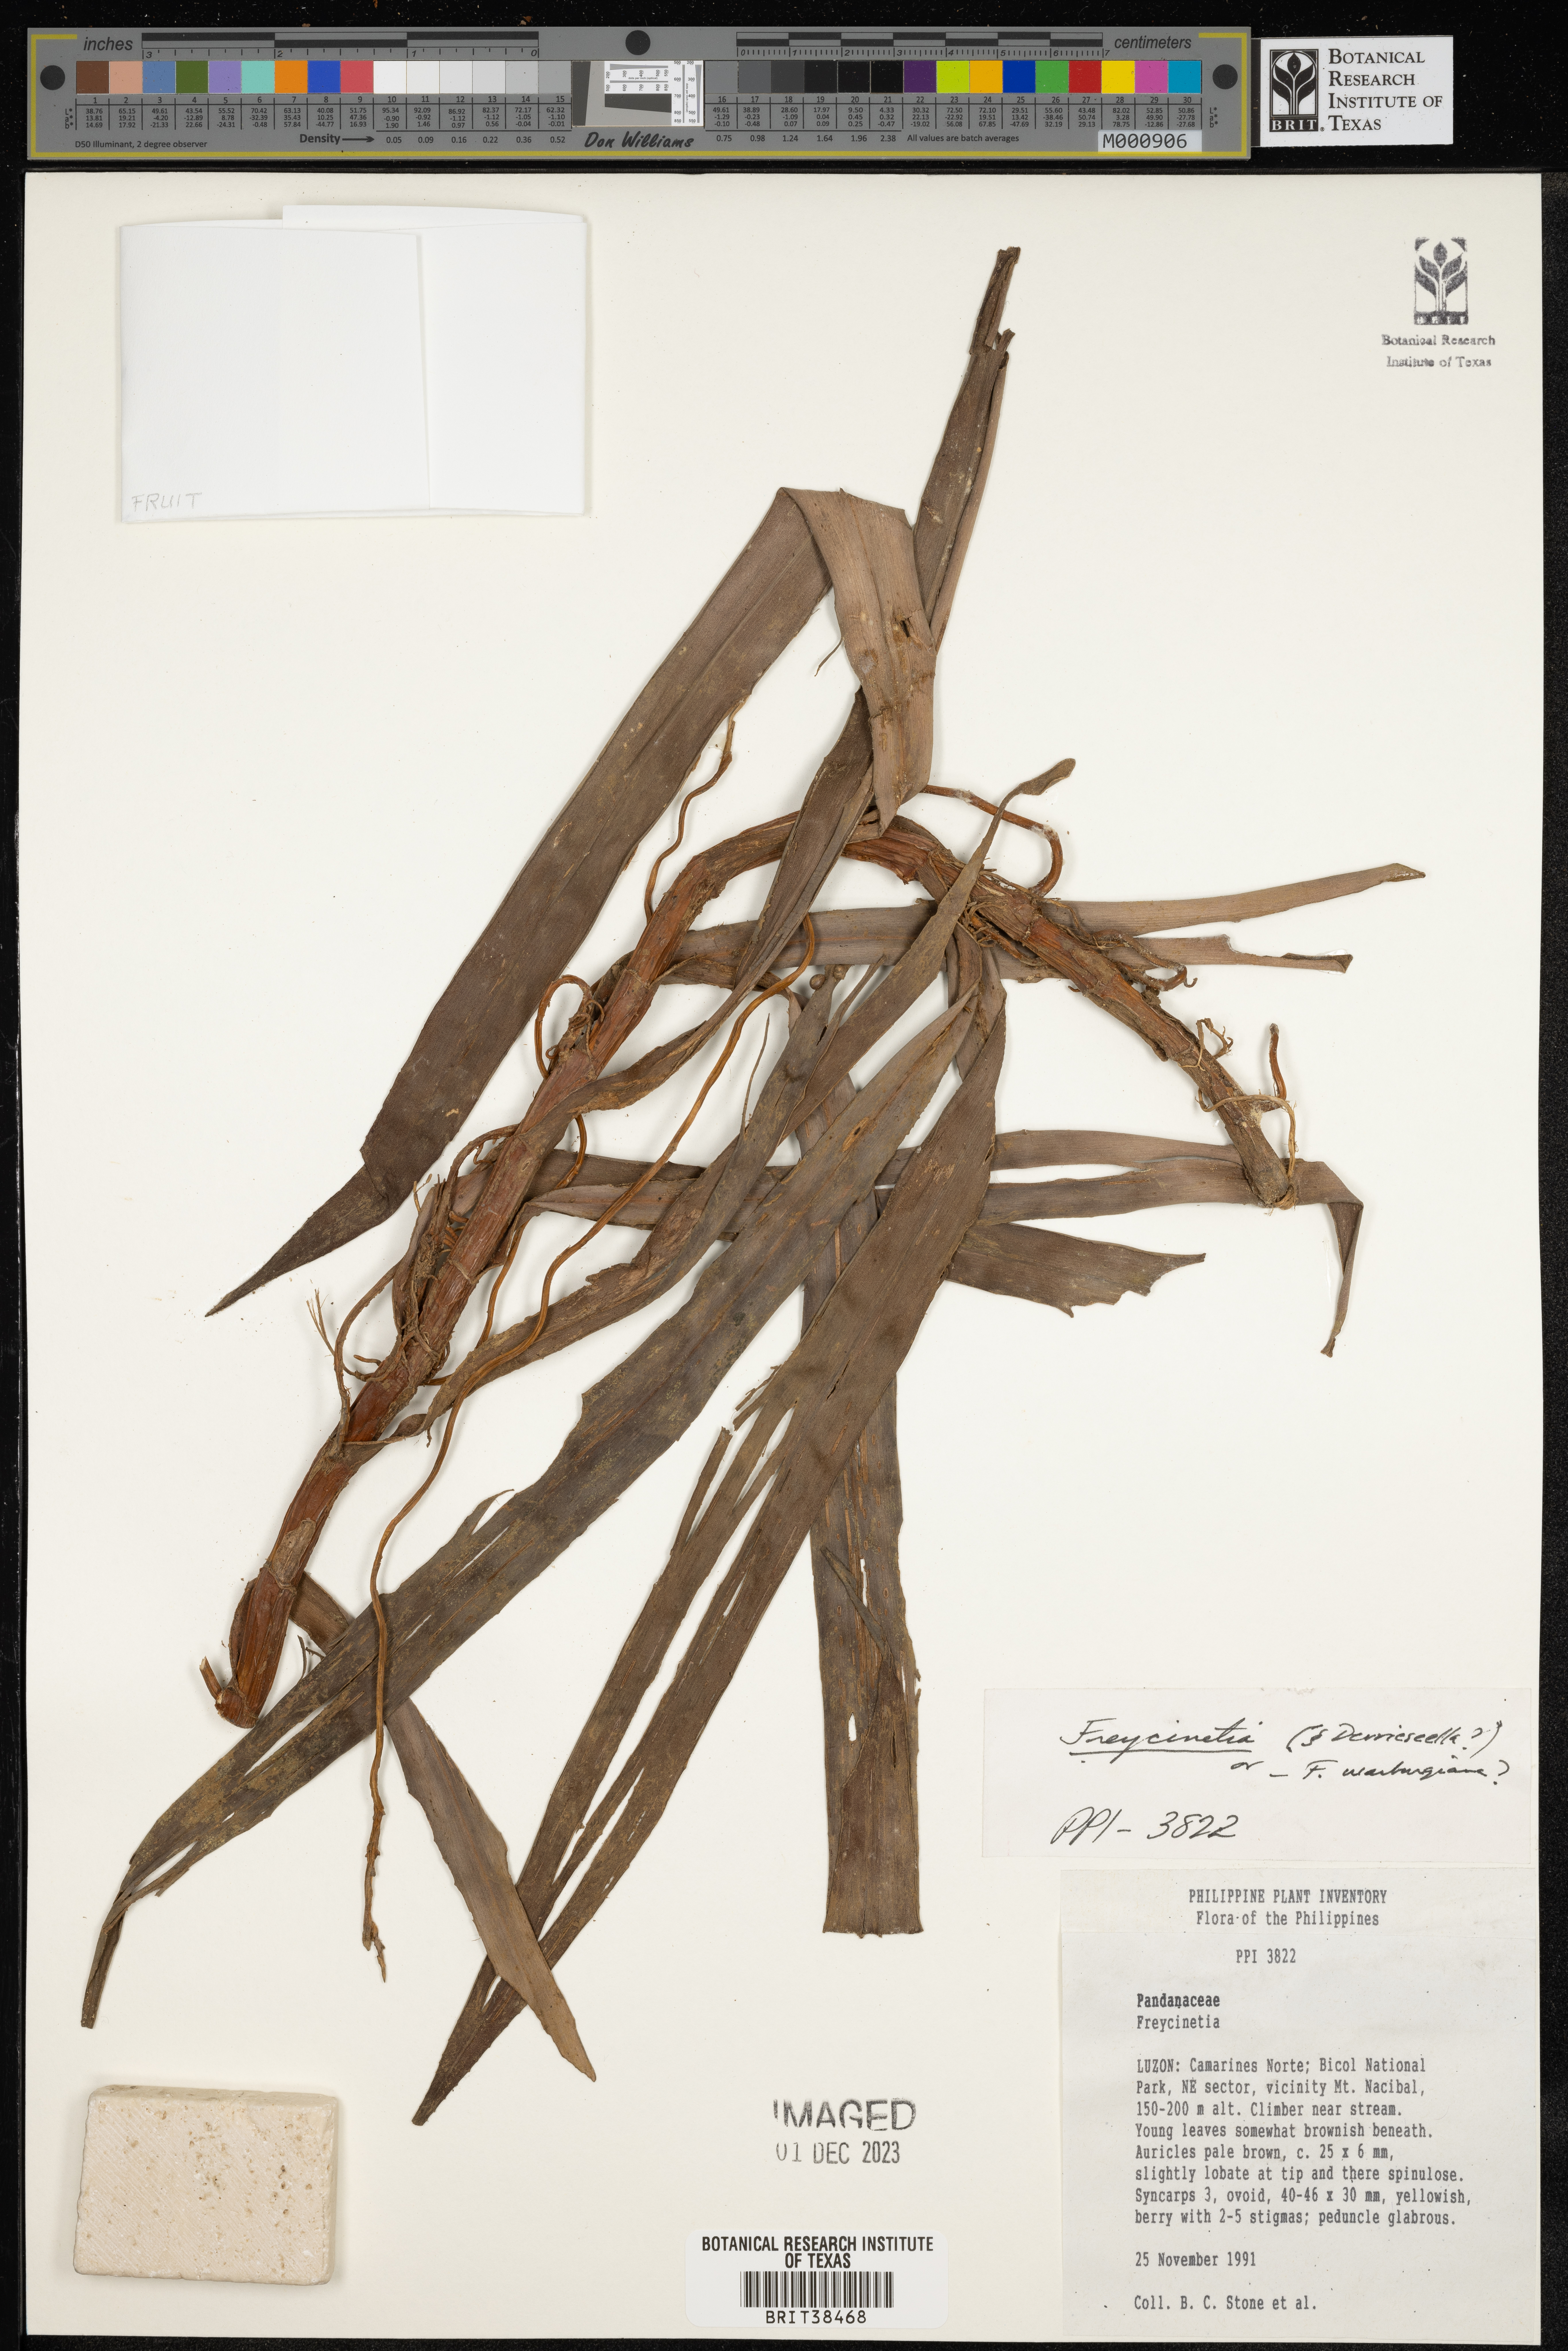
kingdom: Plantae
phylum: Tracheophyta
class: Liliopsida
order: Pandanales
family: Pandanaceae
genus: Freycinetia
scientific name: Freycinetia
